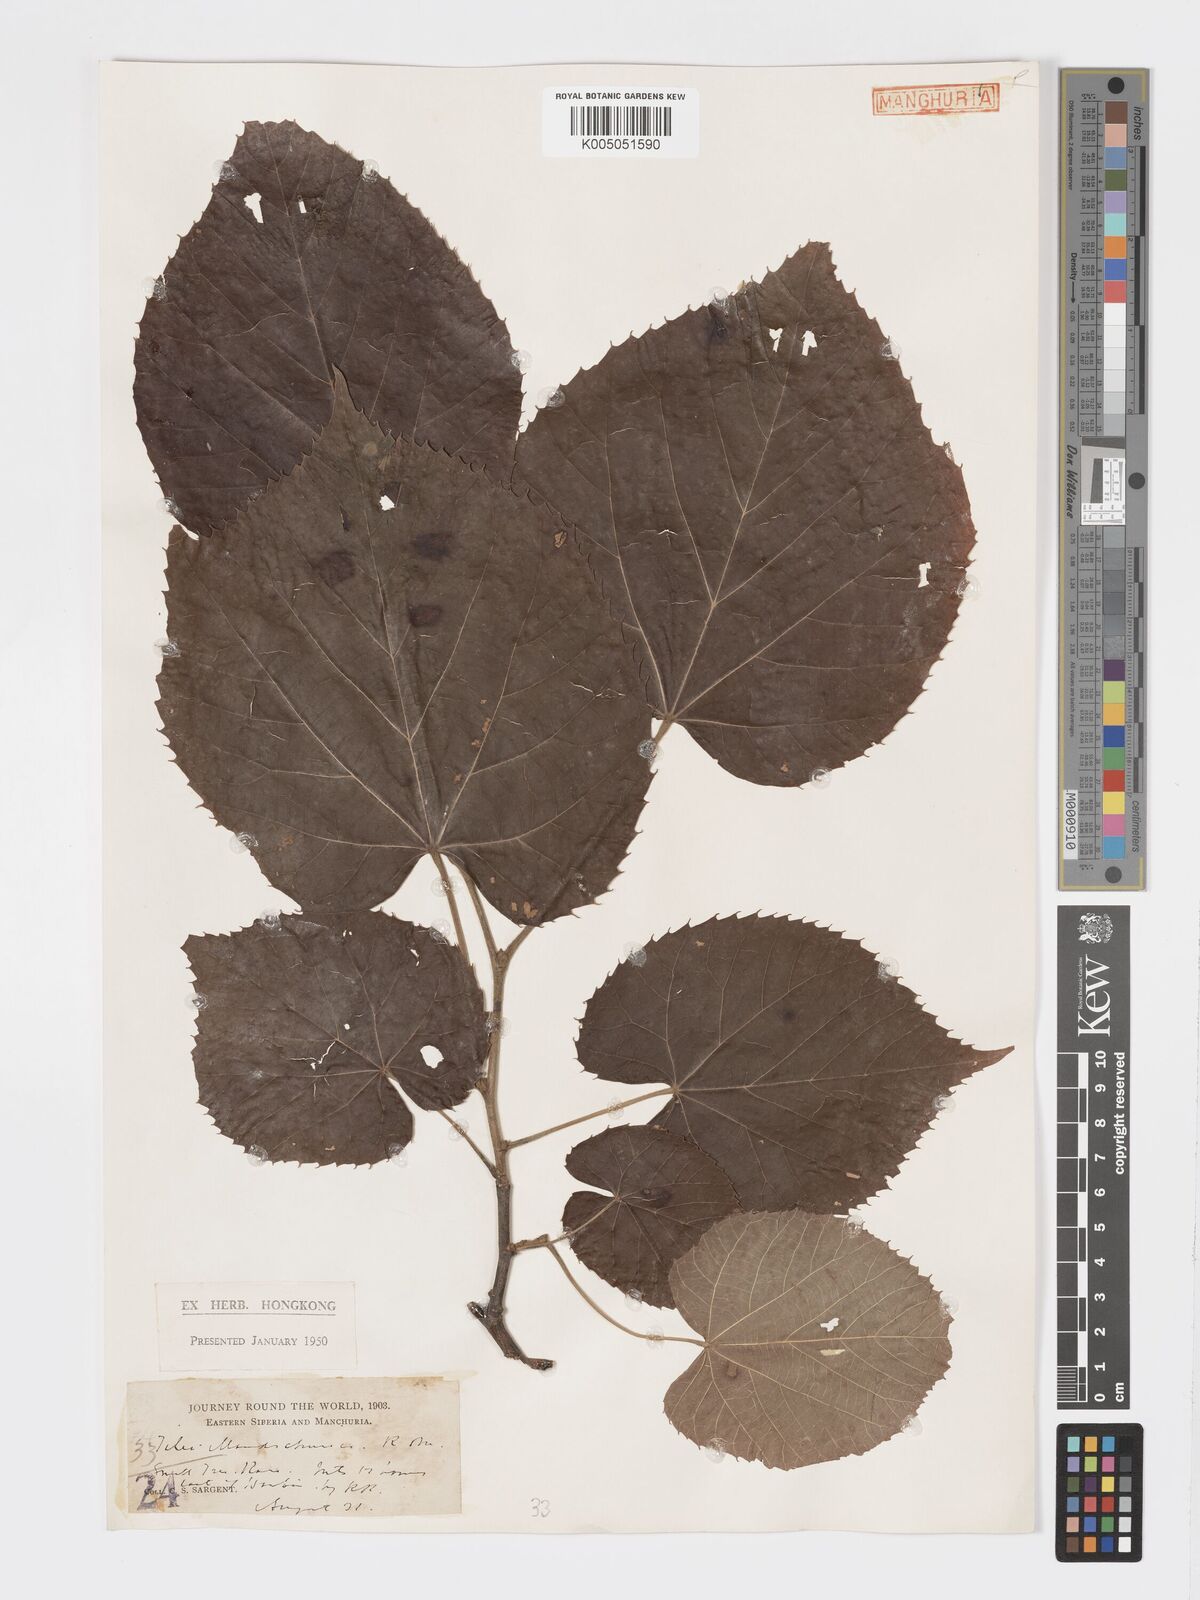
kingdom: Plantae
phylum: Tracheophyta
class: Magnoliopsida
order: Malvales
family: Malvaceae
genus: Tilia
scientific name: Tilia mandshurica
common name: Manchurian linden
